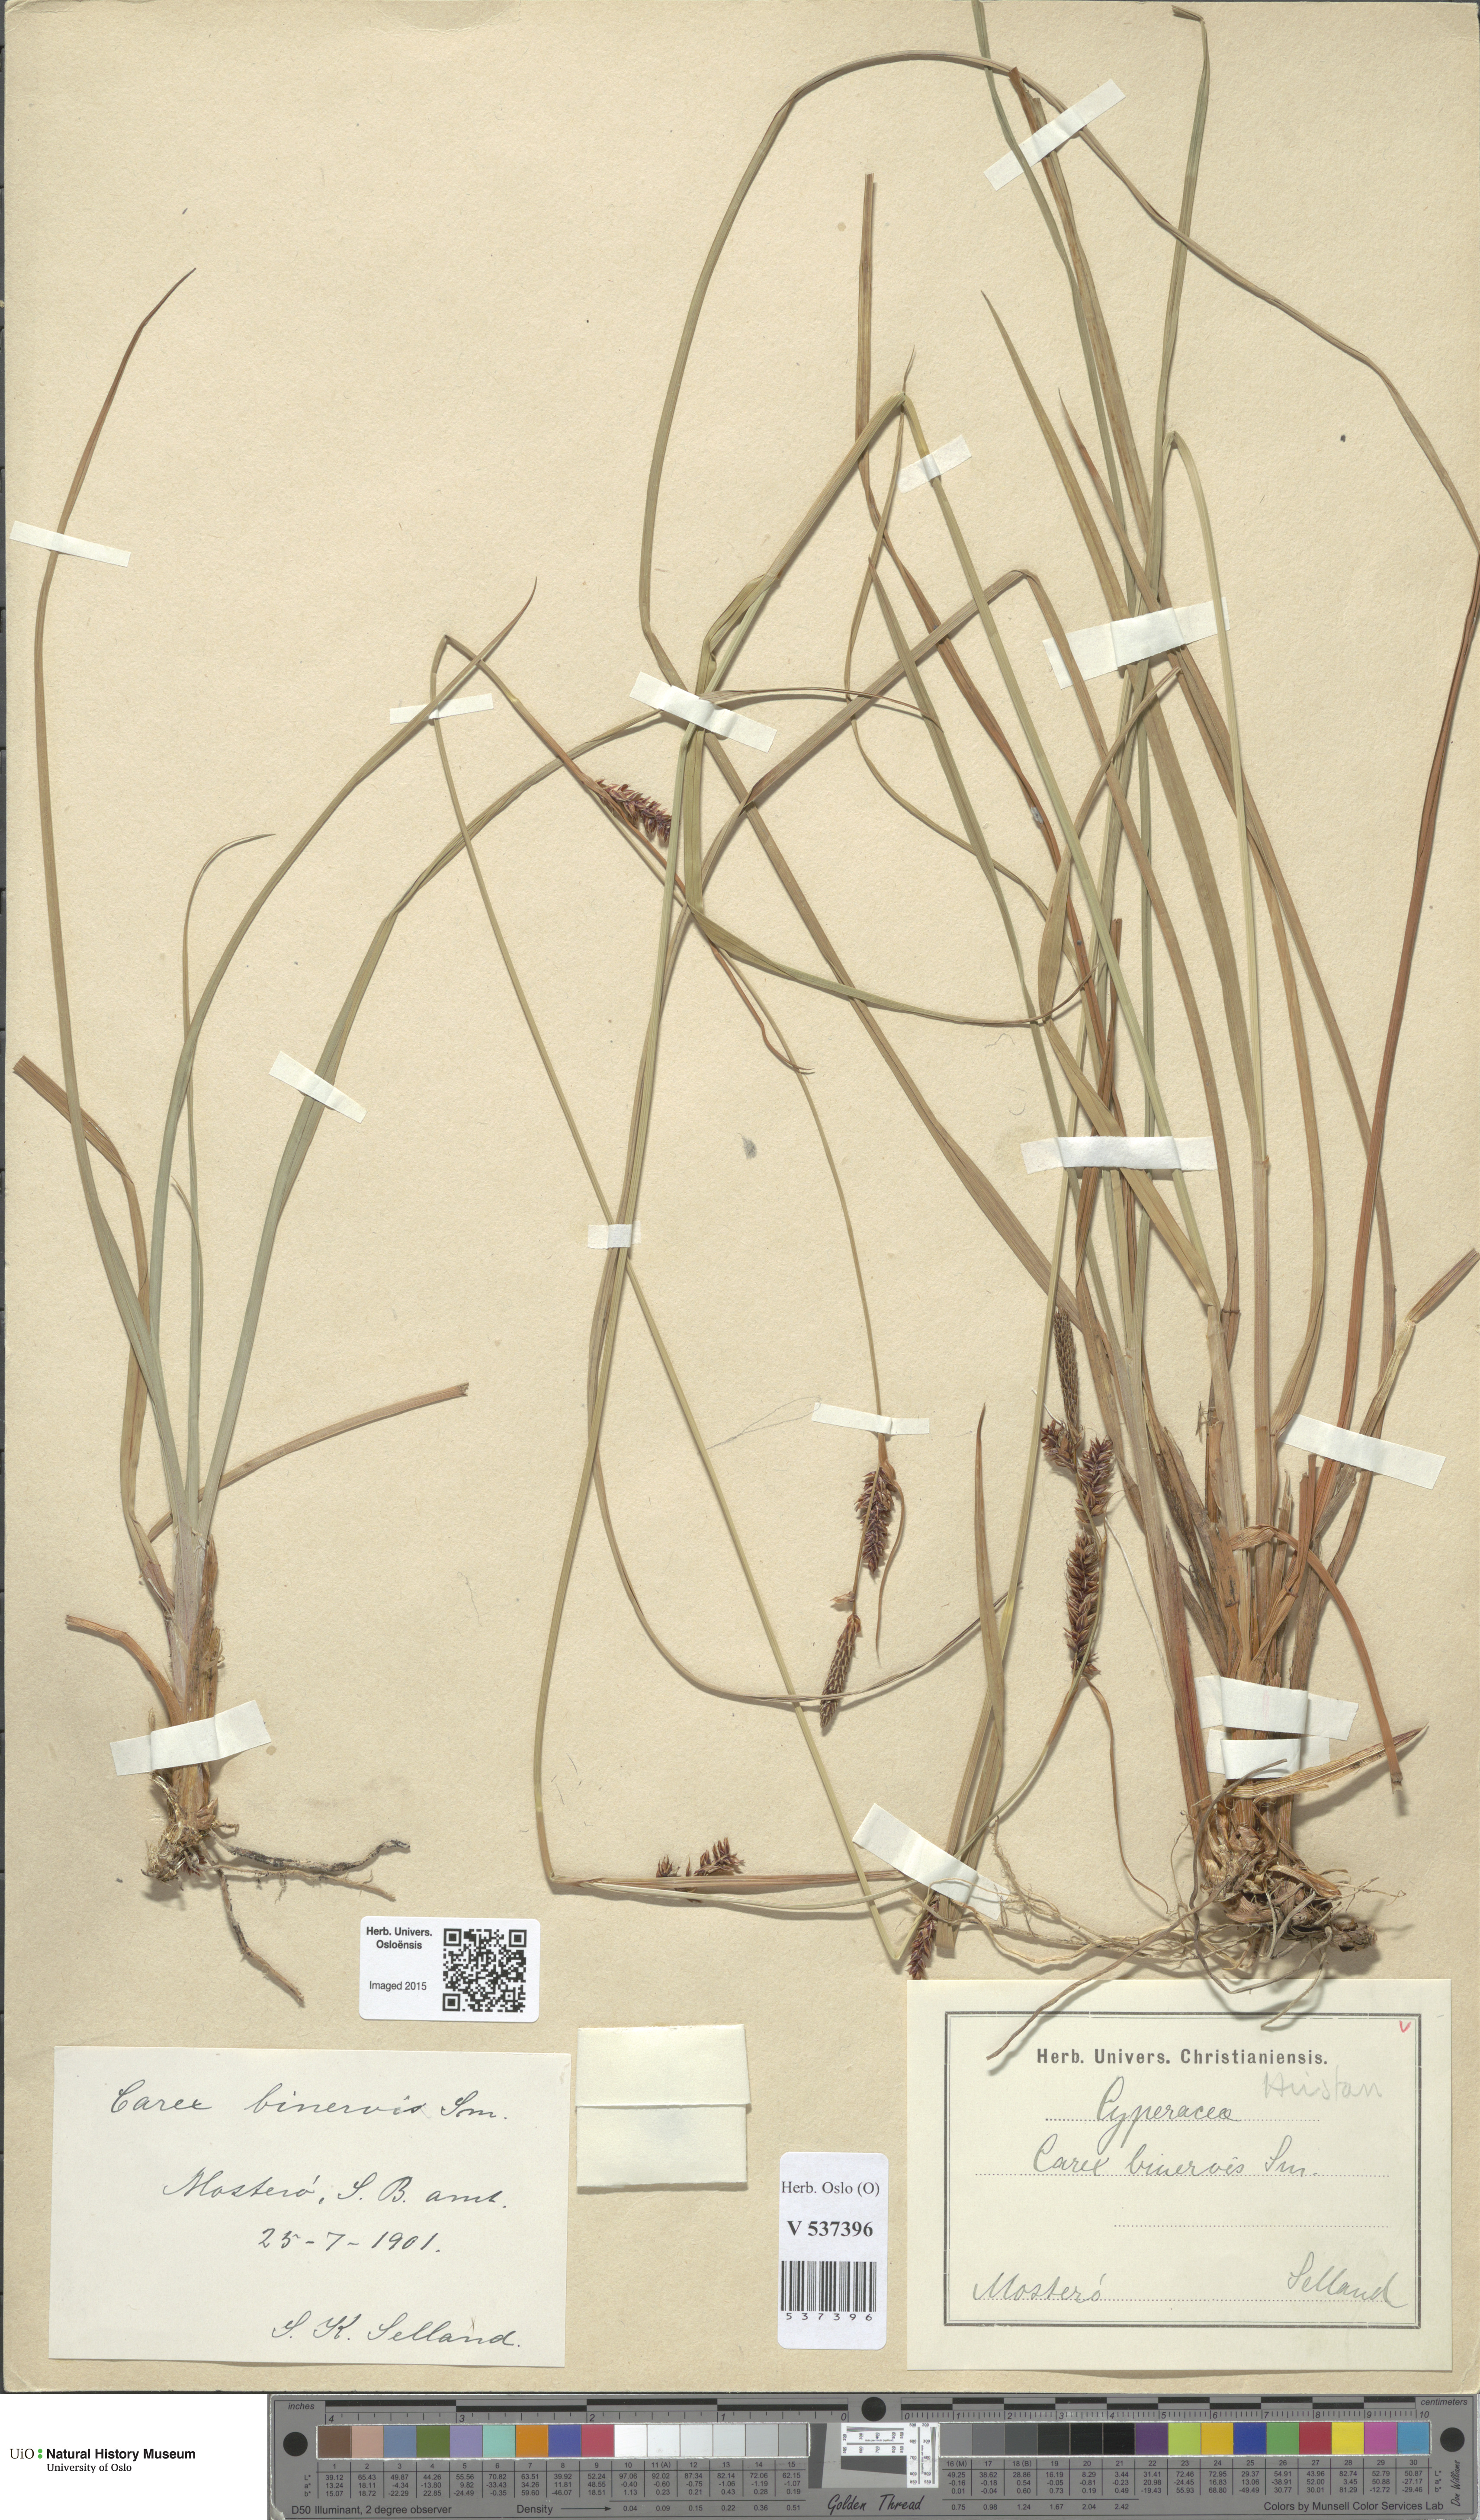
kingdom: Plantae
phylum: Tracheophyta
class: Liliopsida
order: Poales
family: Cyperaceae
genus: Carex
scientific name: Carex binervis
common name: Green-ribbed sedge
